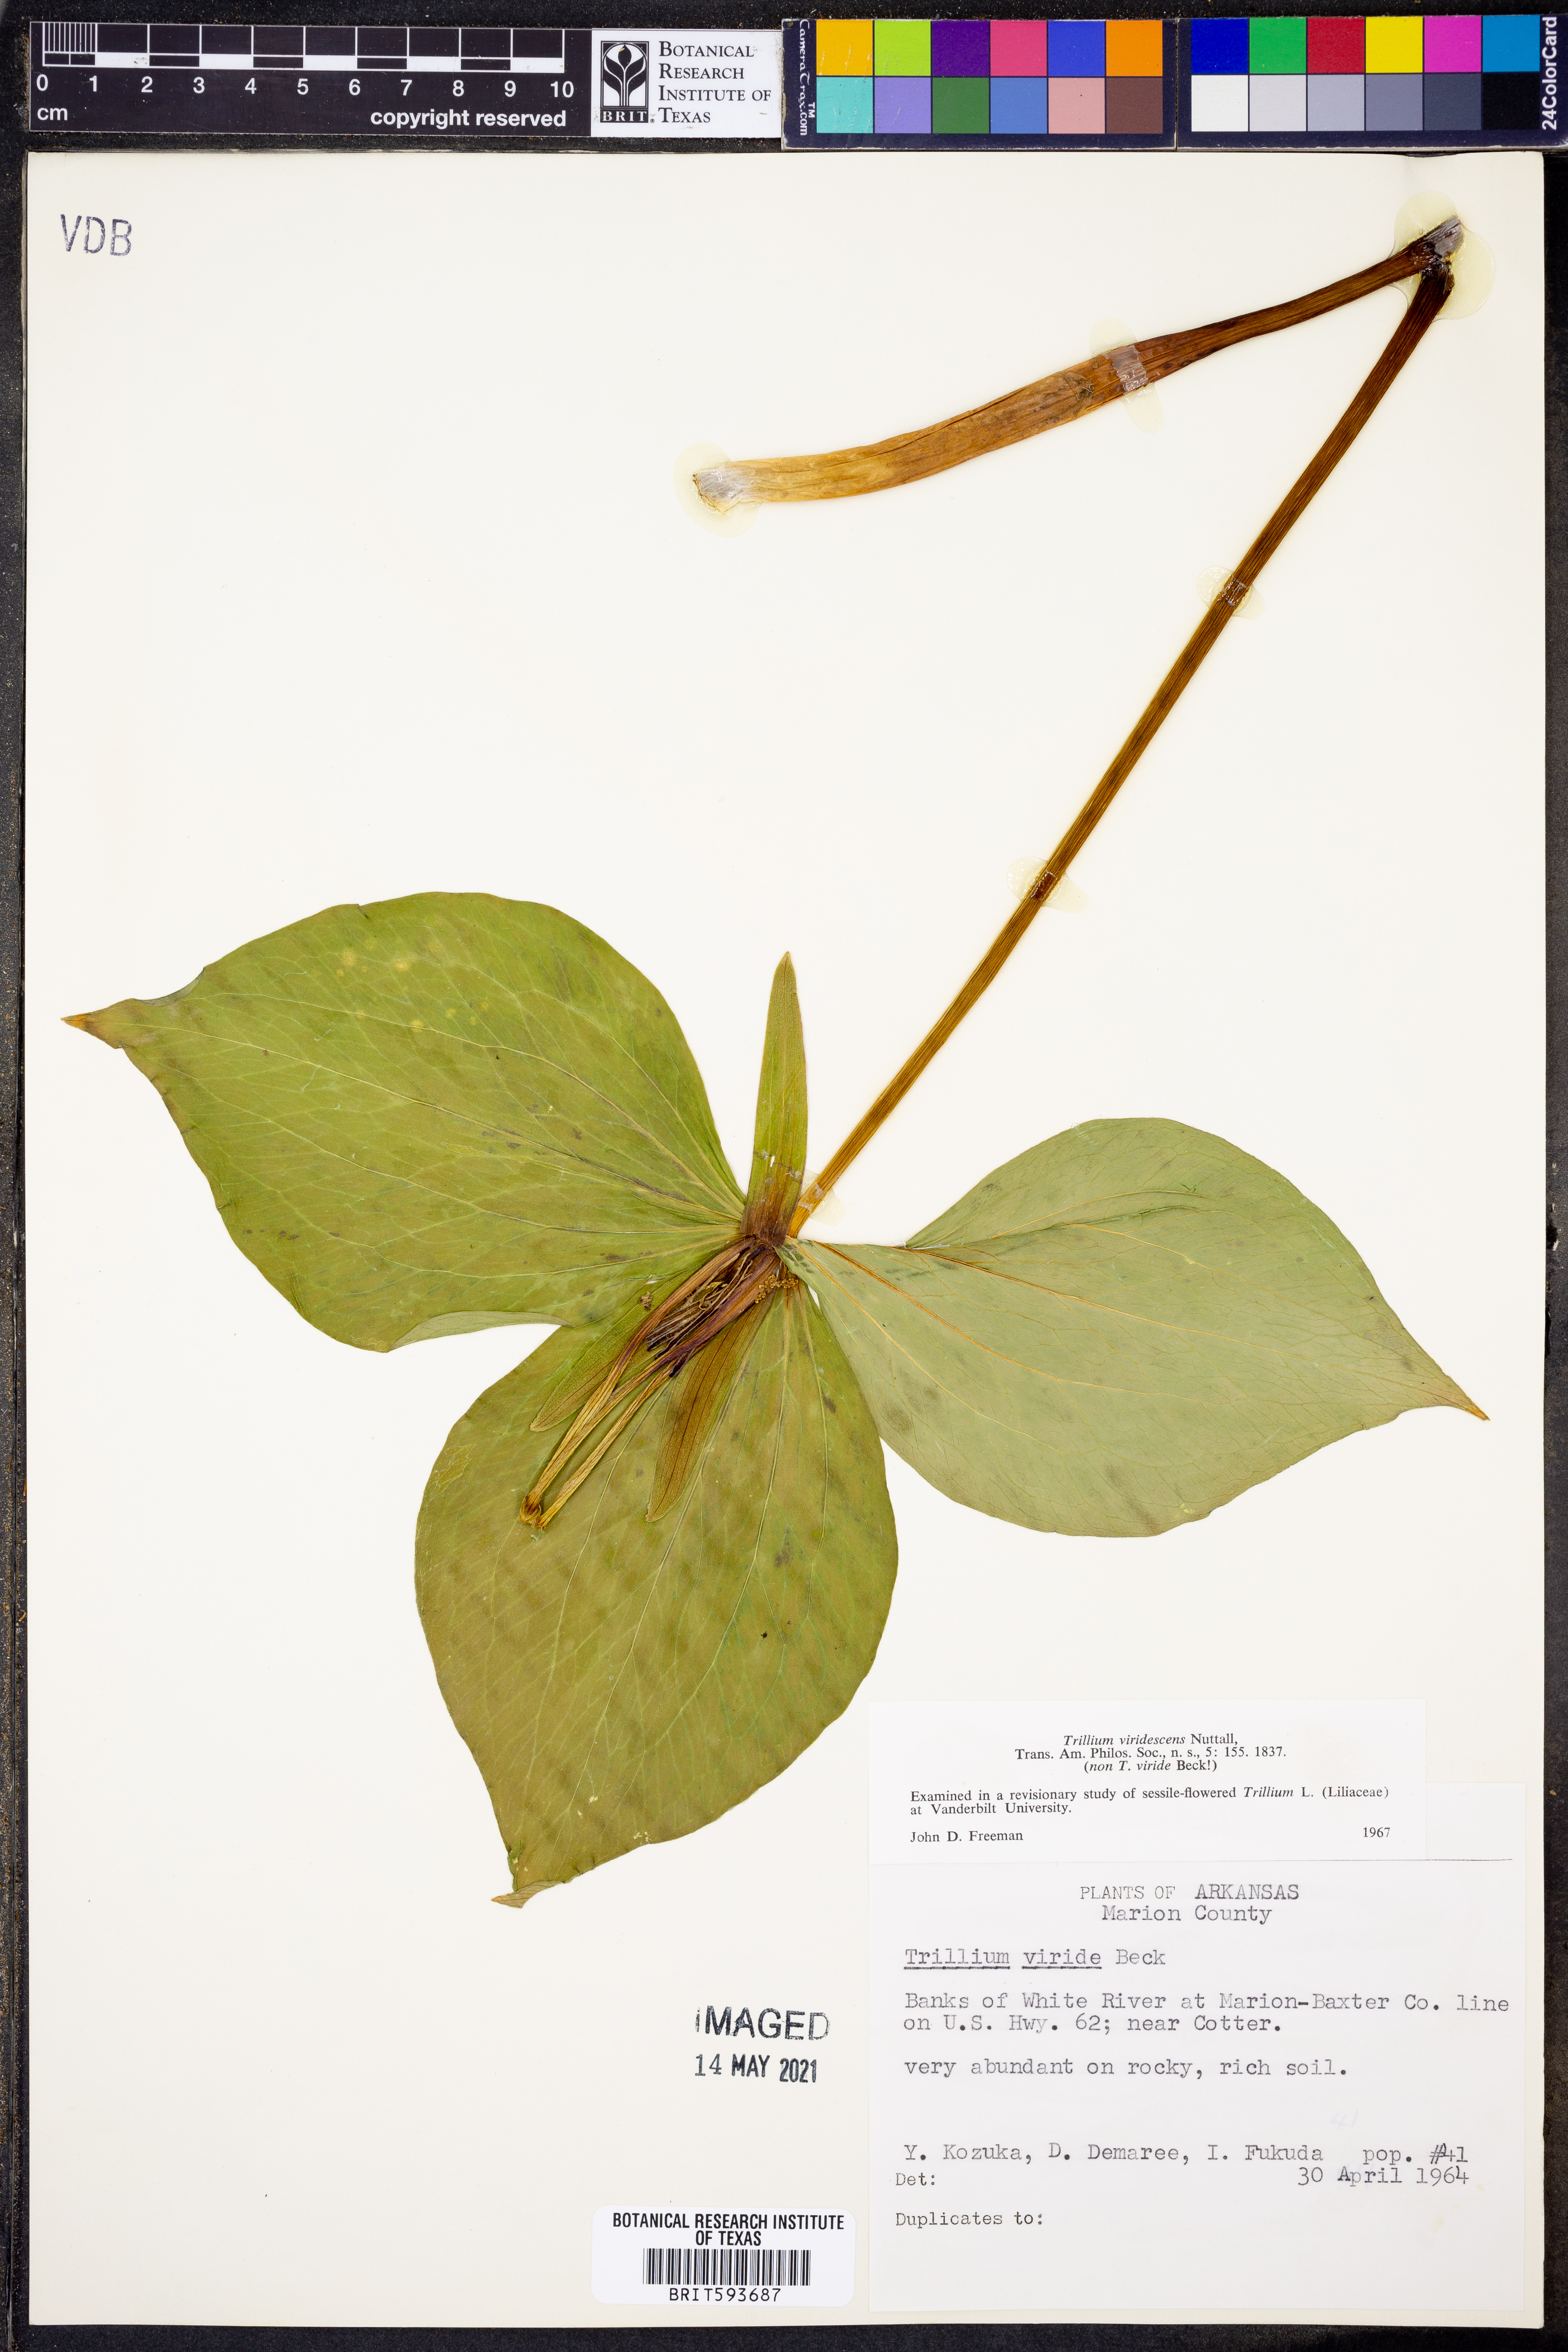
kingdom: Plantae
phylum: Tracheophyta
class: Liliopsida
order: Liliales
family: Melanthiaceae
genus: Trillium
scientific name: Trillium viridescens
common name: Ozark green trillium
